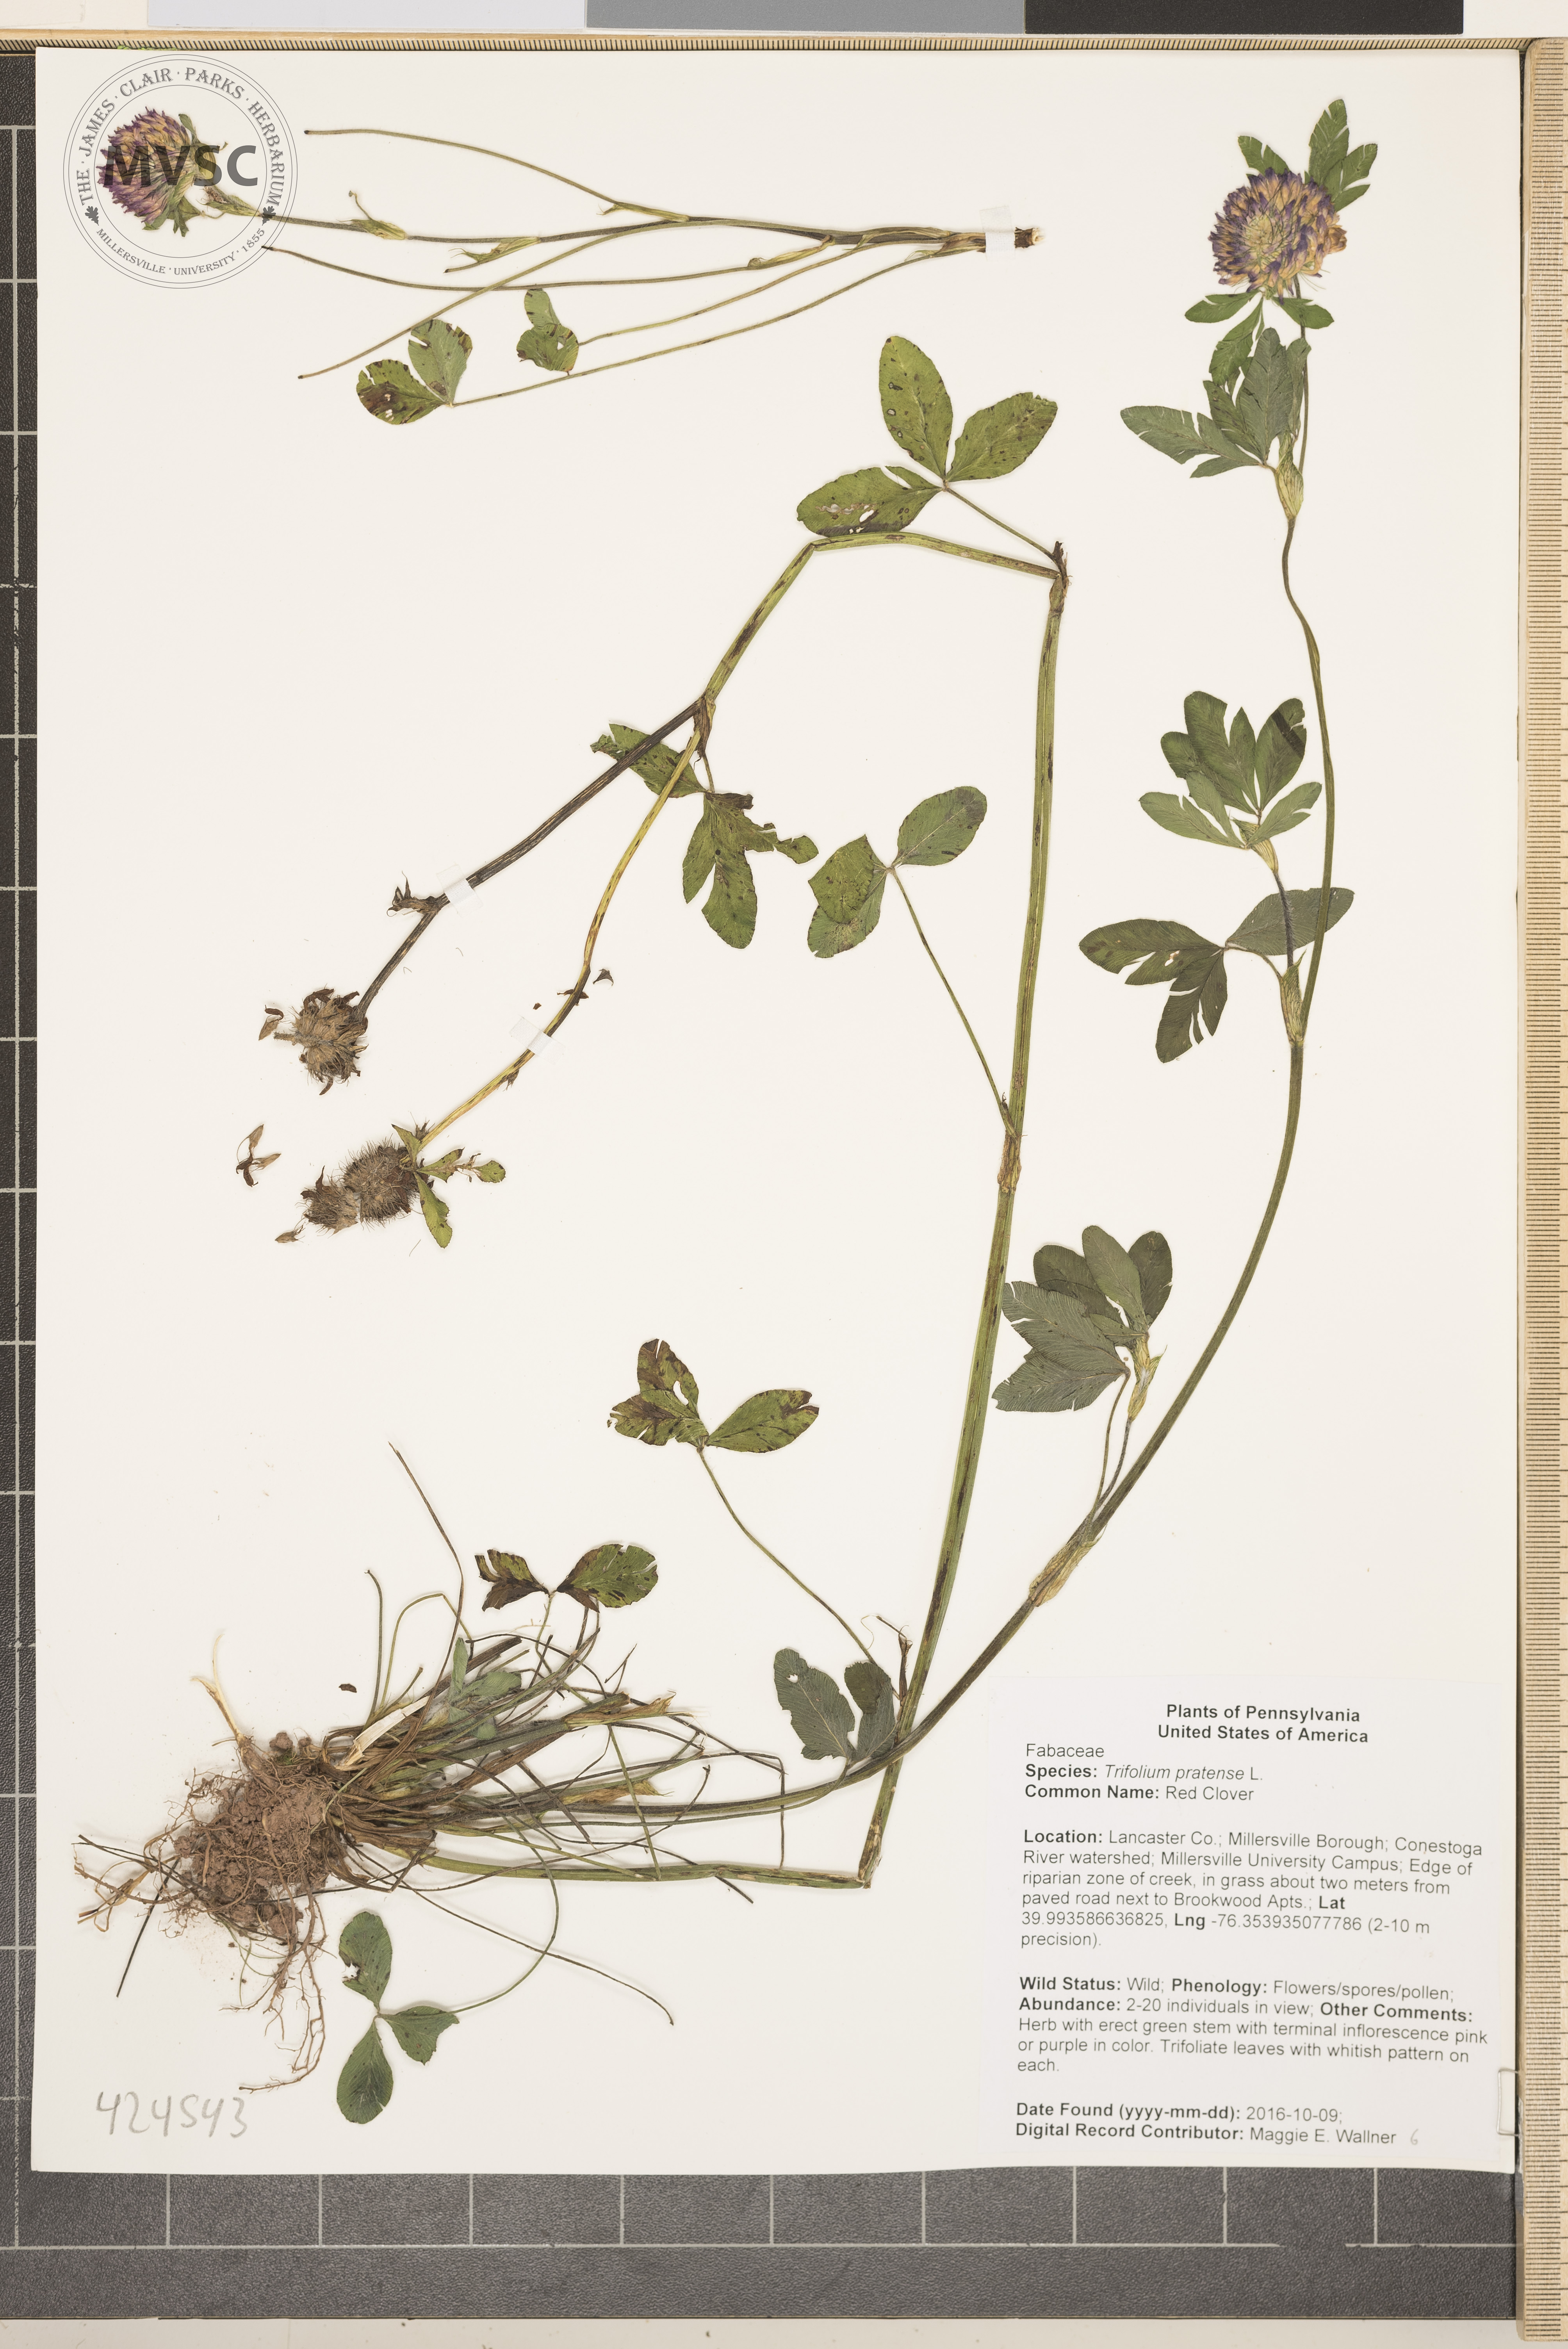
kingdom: Plantae
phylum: Tracheophyta
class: Magnoliopsida
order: Fabales
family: Fabaceae
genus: Trifolium
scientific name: Trifolium pratense
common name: Red CLover
